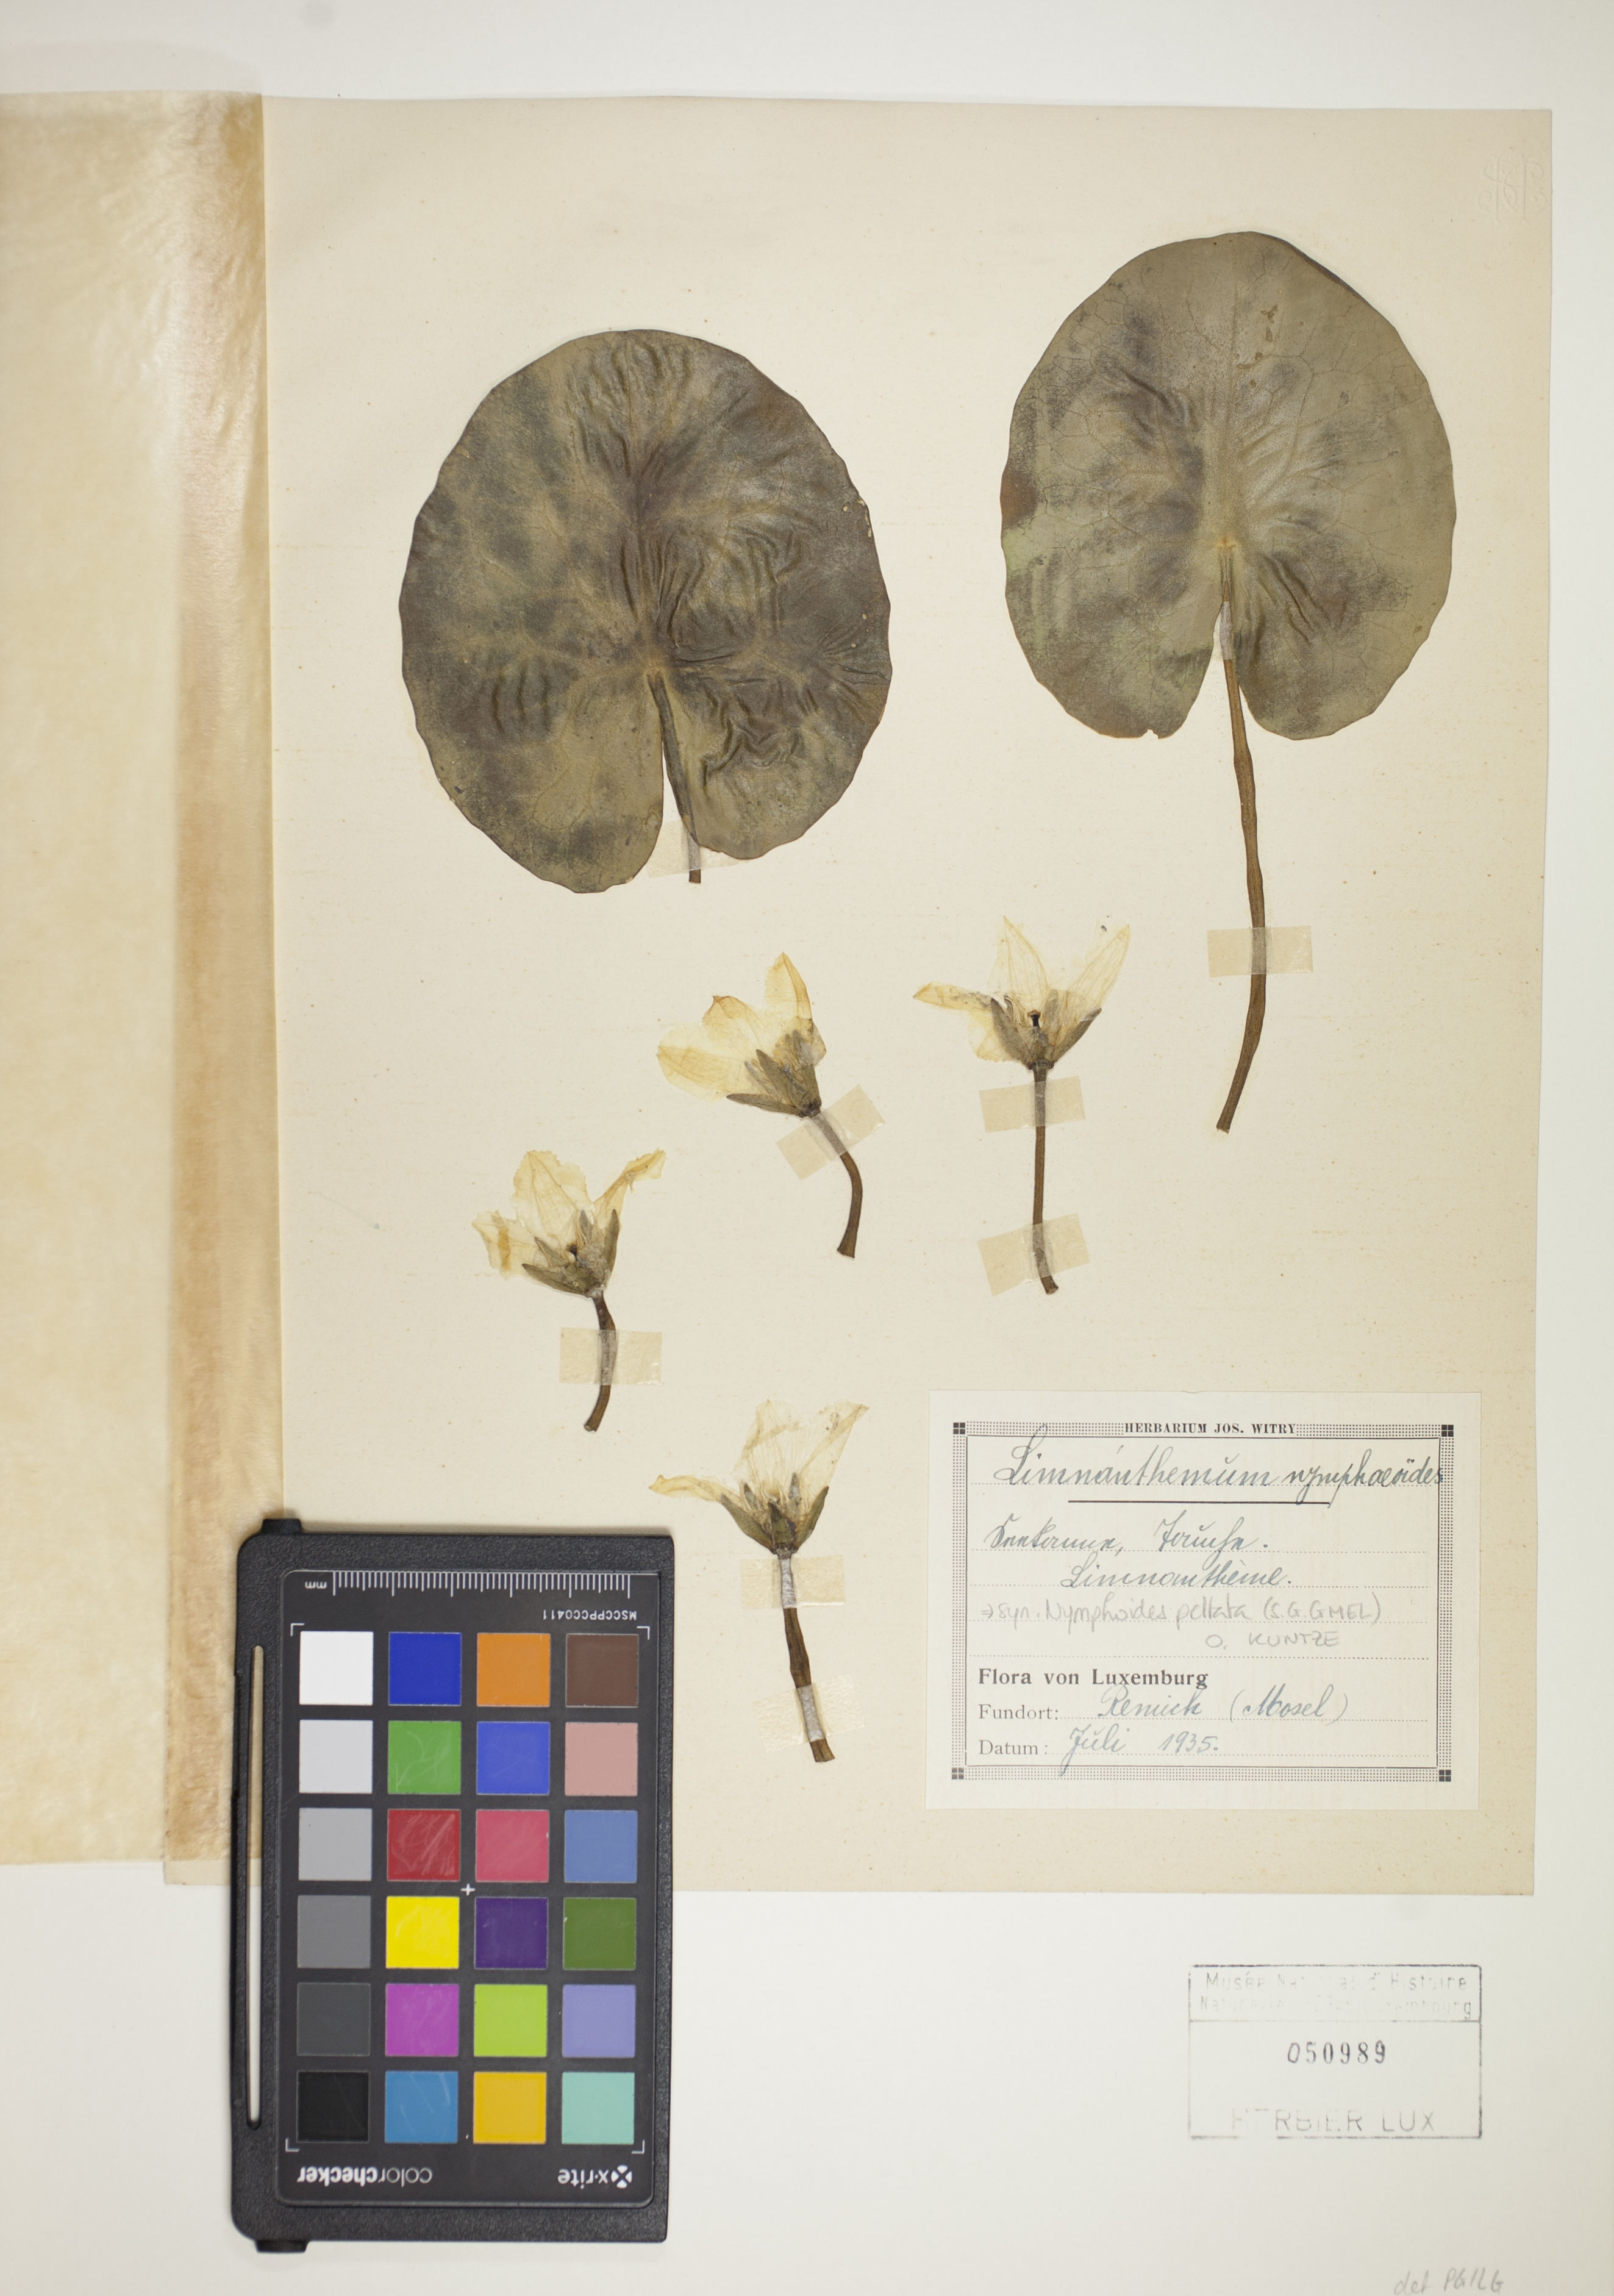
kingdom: Plantae
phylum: Tracheophyta
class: Magnoliopsida
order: Asterales
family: Menyanthaceae
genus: Nymphoides
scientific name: Nymphoides peltata
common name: Fringed water-lily
